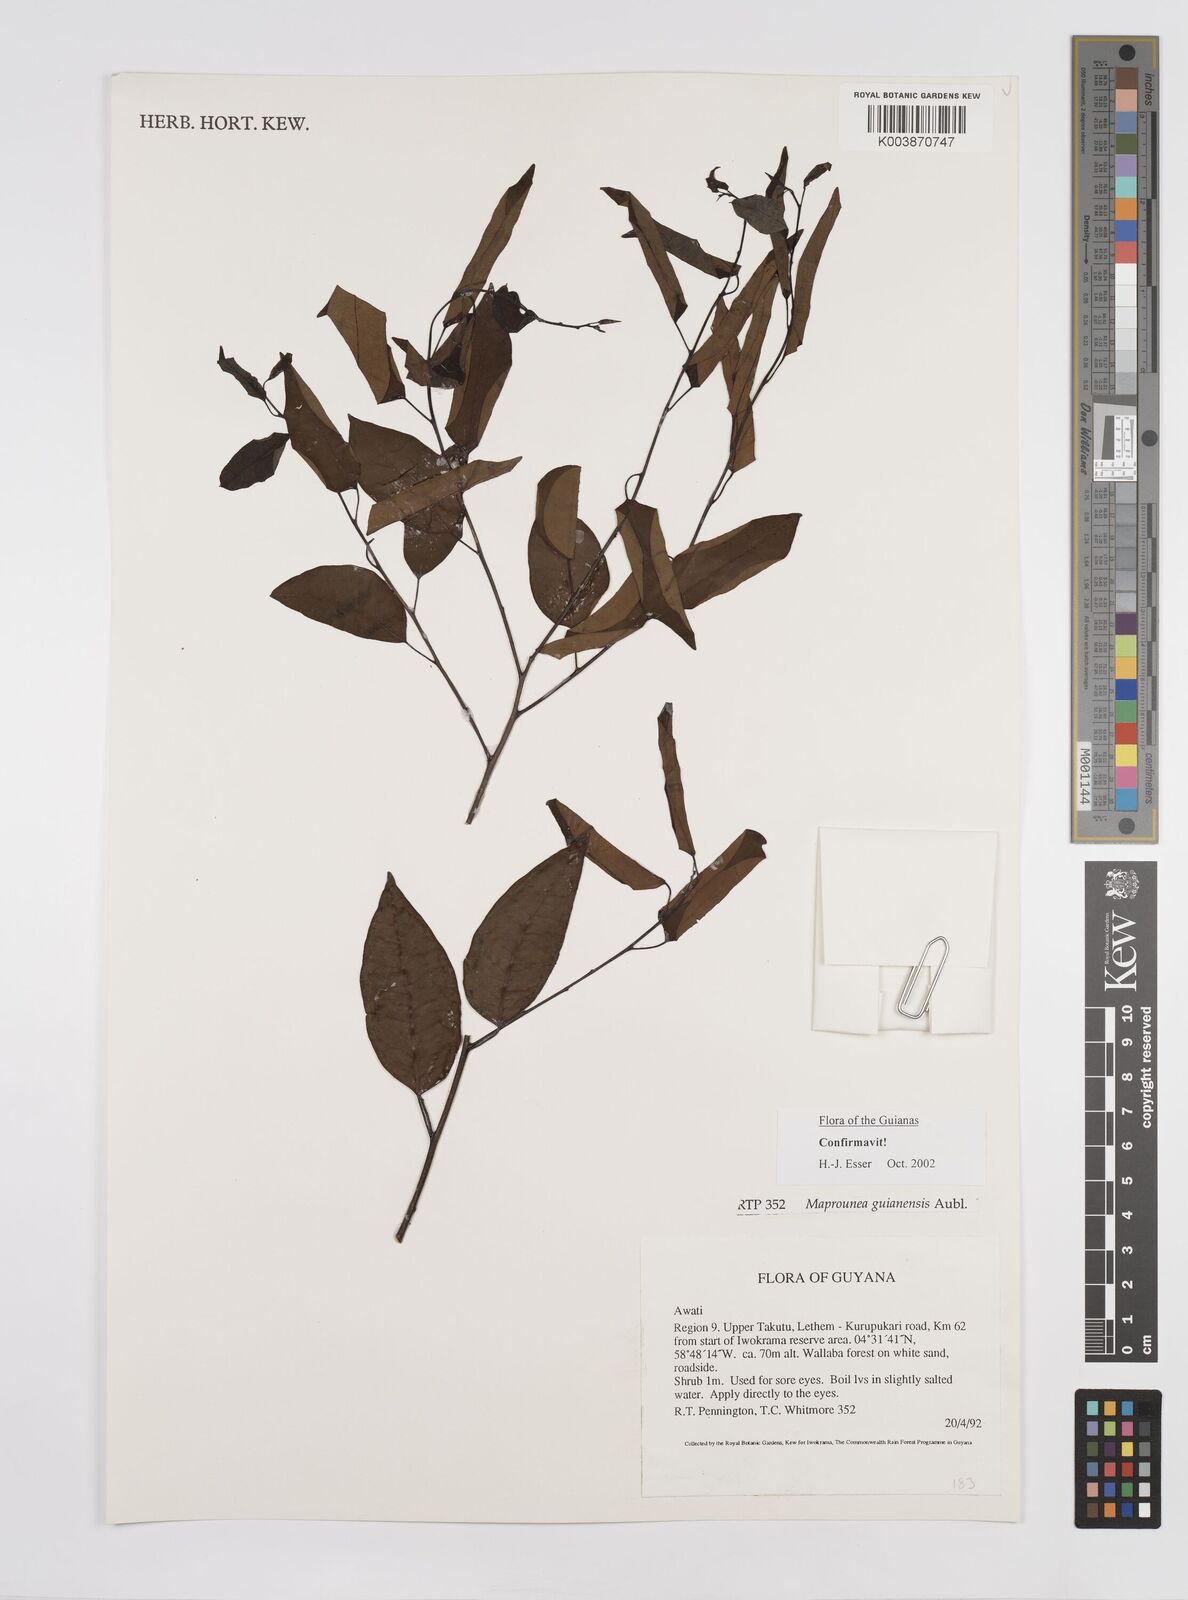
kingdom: Plantae
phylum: Tracheophyta
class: Magnoliopsida
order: Malpighiales
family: Euphorbiaceae
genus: Maprounea
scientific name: Maprounea guianensis
